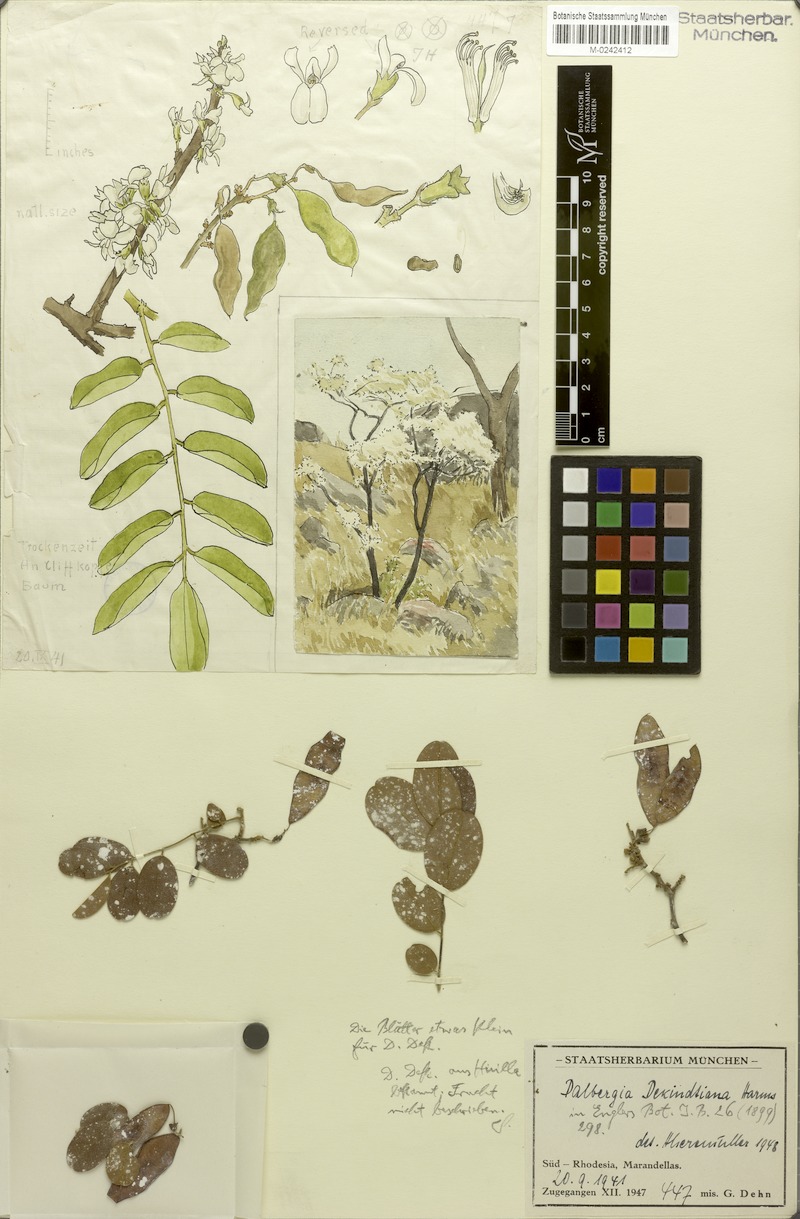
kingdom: Plantae
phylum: Tracheophyta
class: Magnoliopsida
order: Fabales
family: Fabaceae
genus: Dalbergia
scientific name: Dalbergia nitidula
